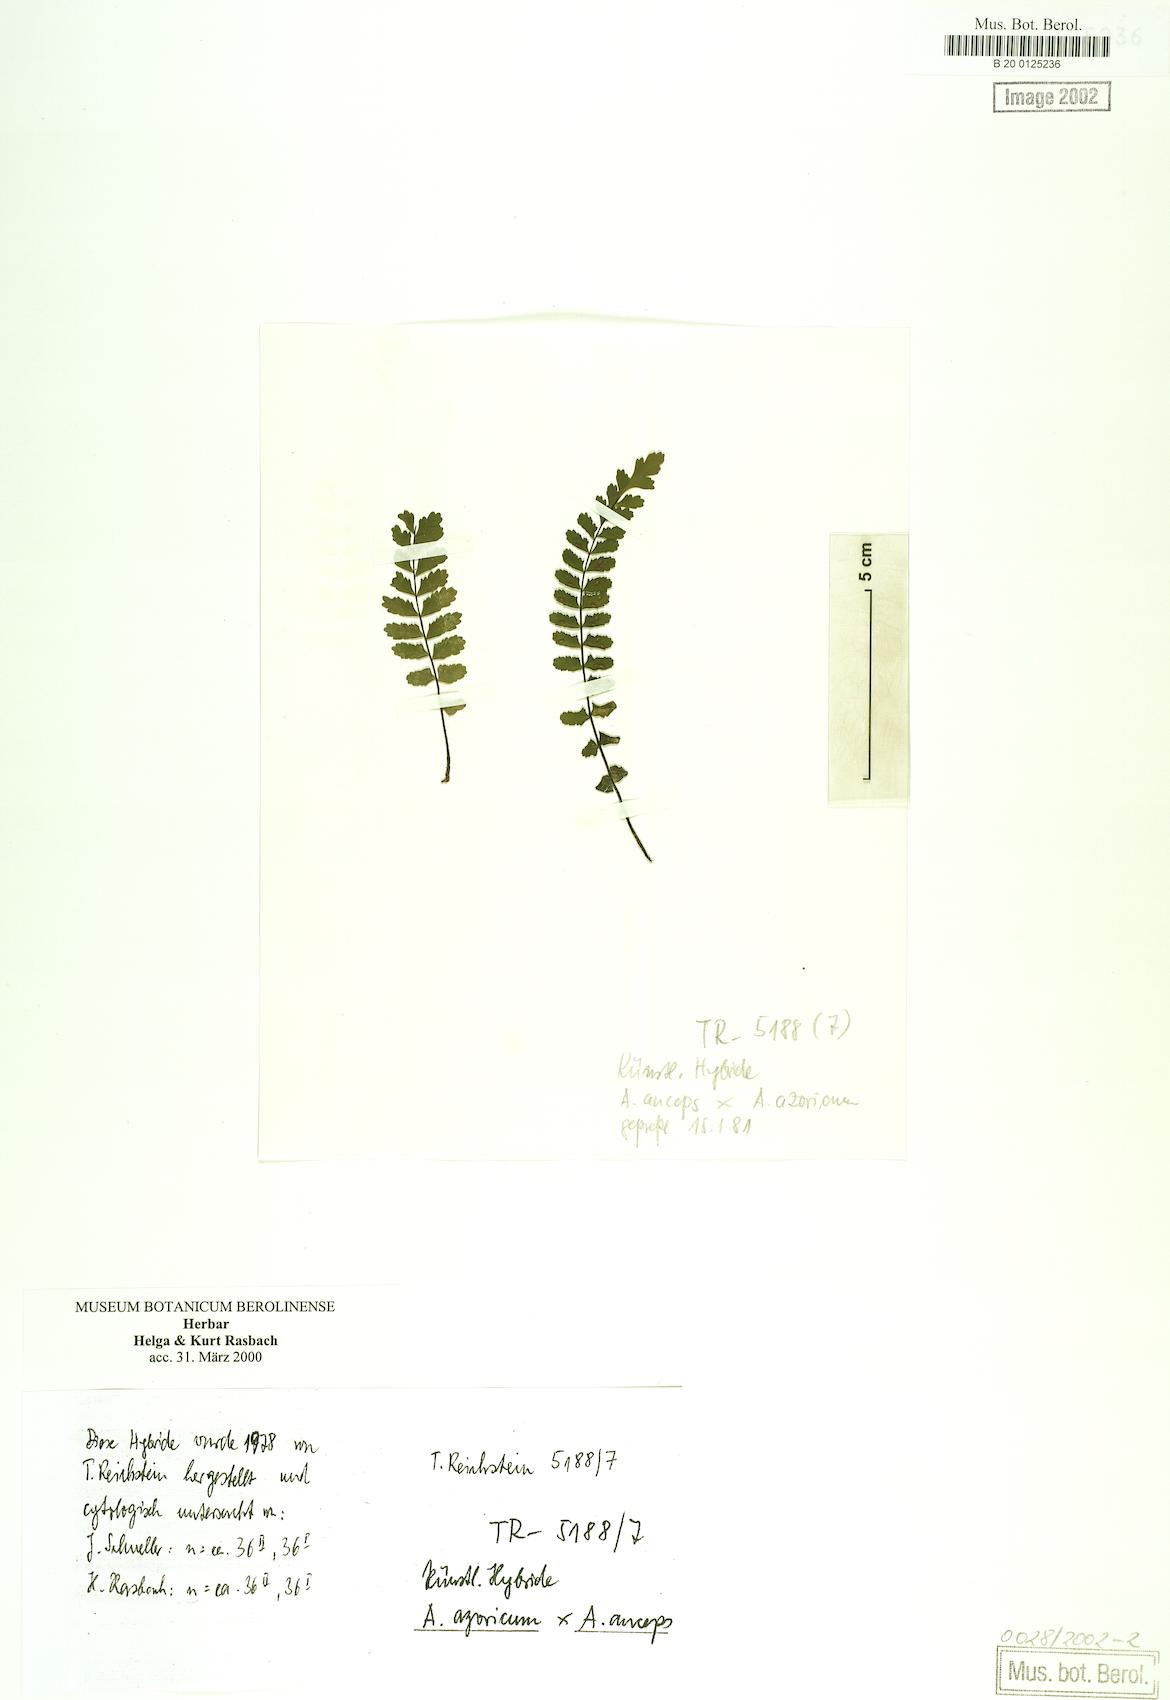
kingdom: Plantae
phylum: Tracheophyta
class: Polypodiopsida
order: Polypodiales
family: Aspleniaceae
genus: Asplenium
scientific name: Asplenium azoricum
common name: Azorean spleenwort
